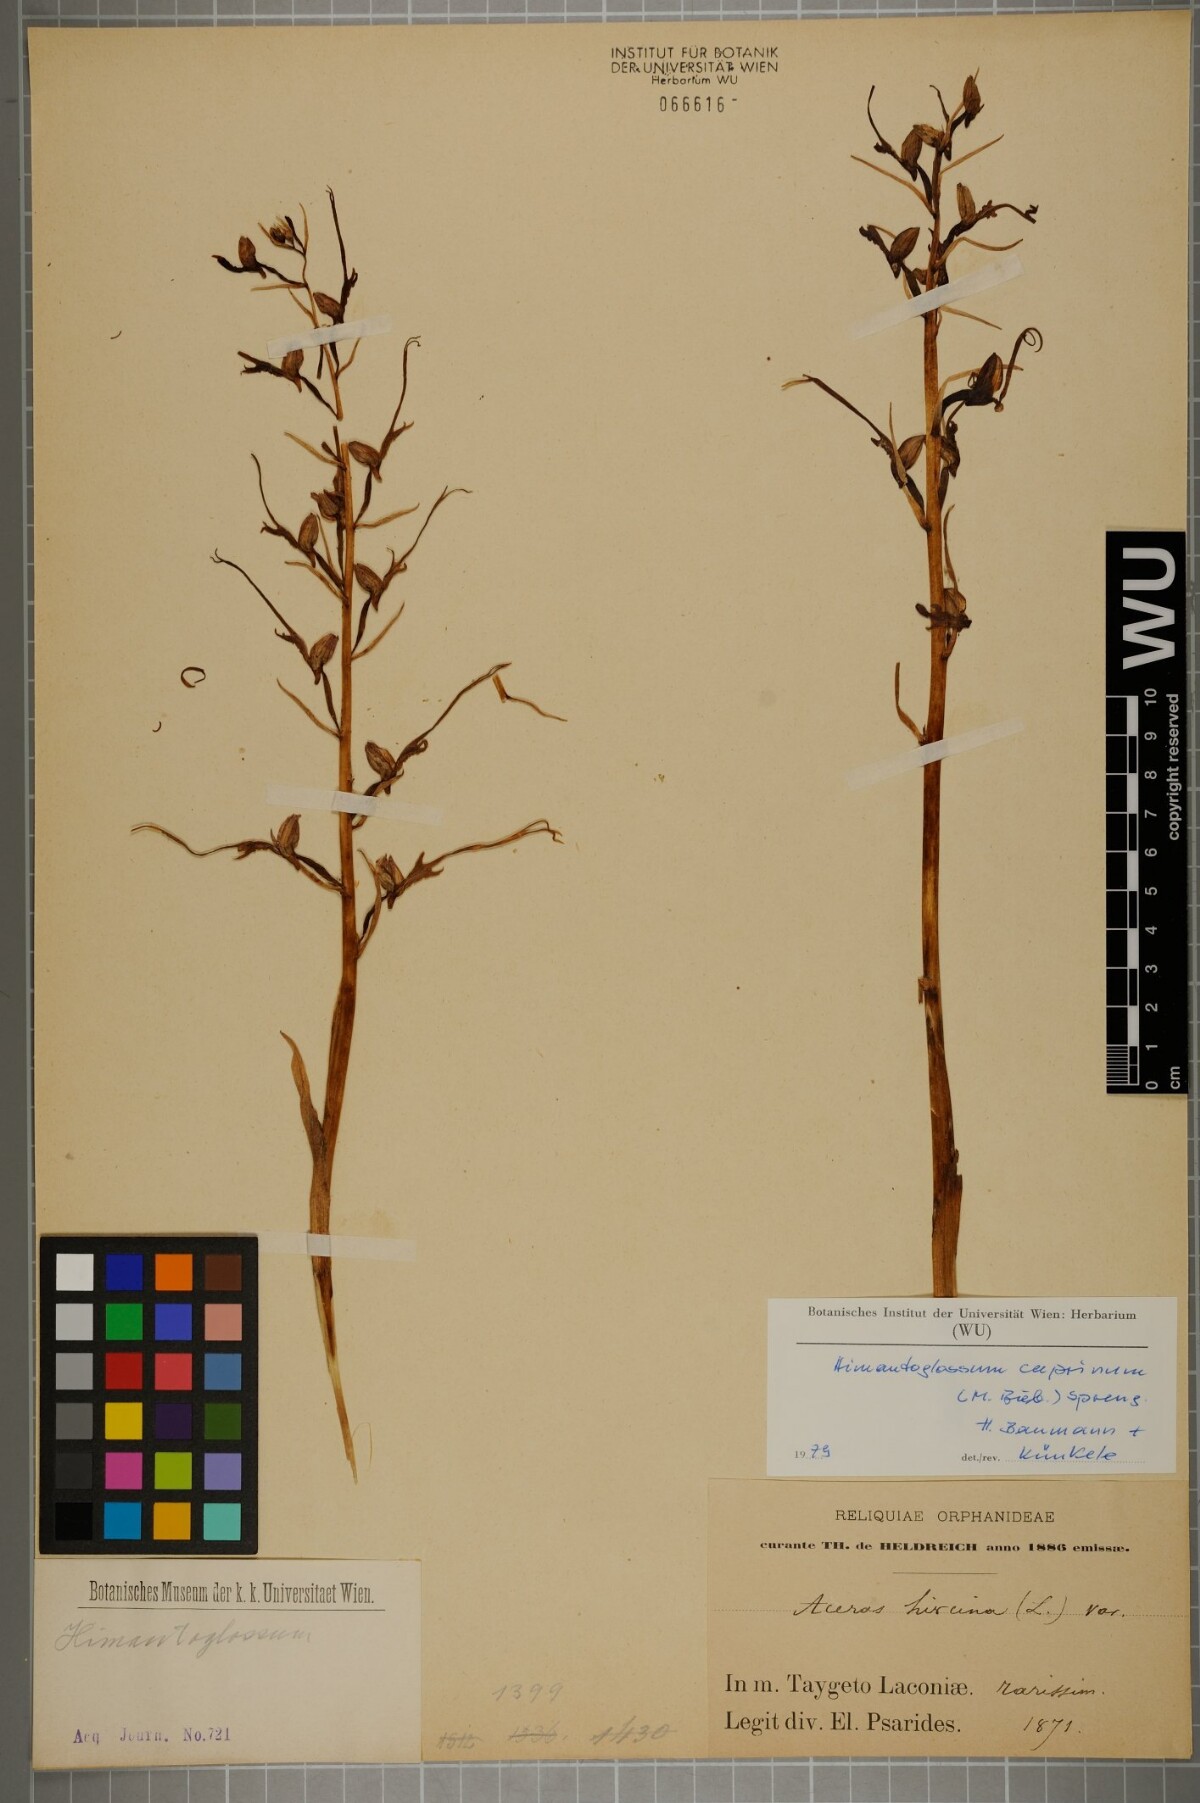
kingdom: Plantae
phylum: Tracheophyta
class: Liliopsida
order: Asparagales
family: Orchidaceae
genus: Himantoglossum
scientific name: Himantoglossum caprinum
